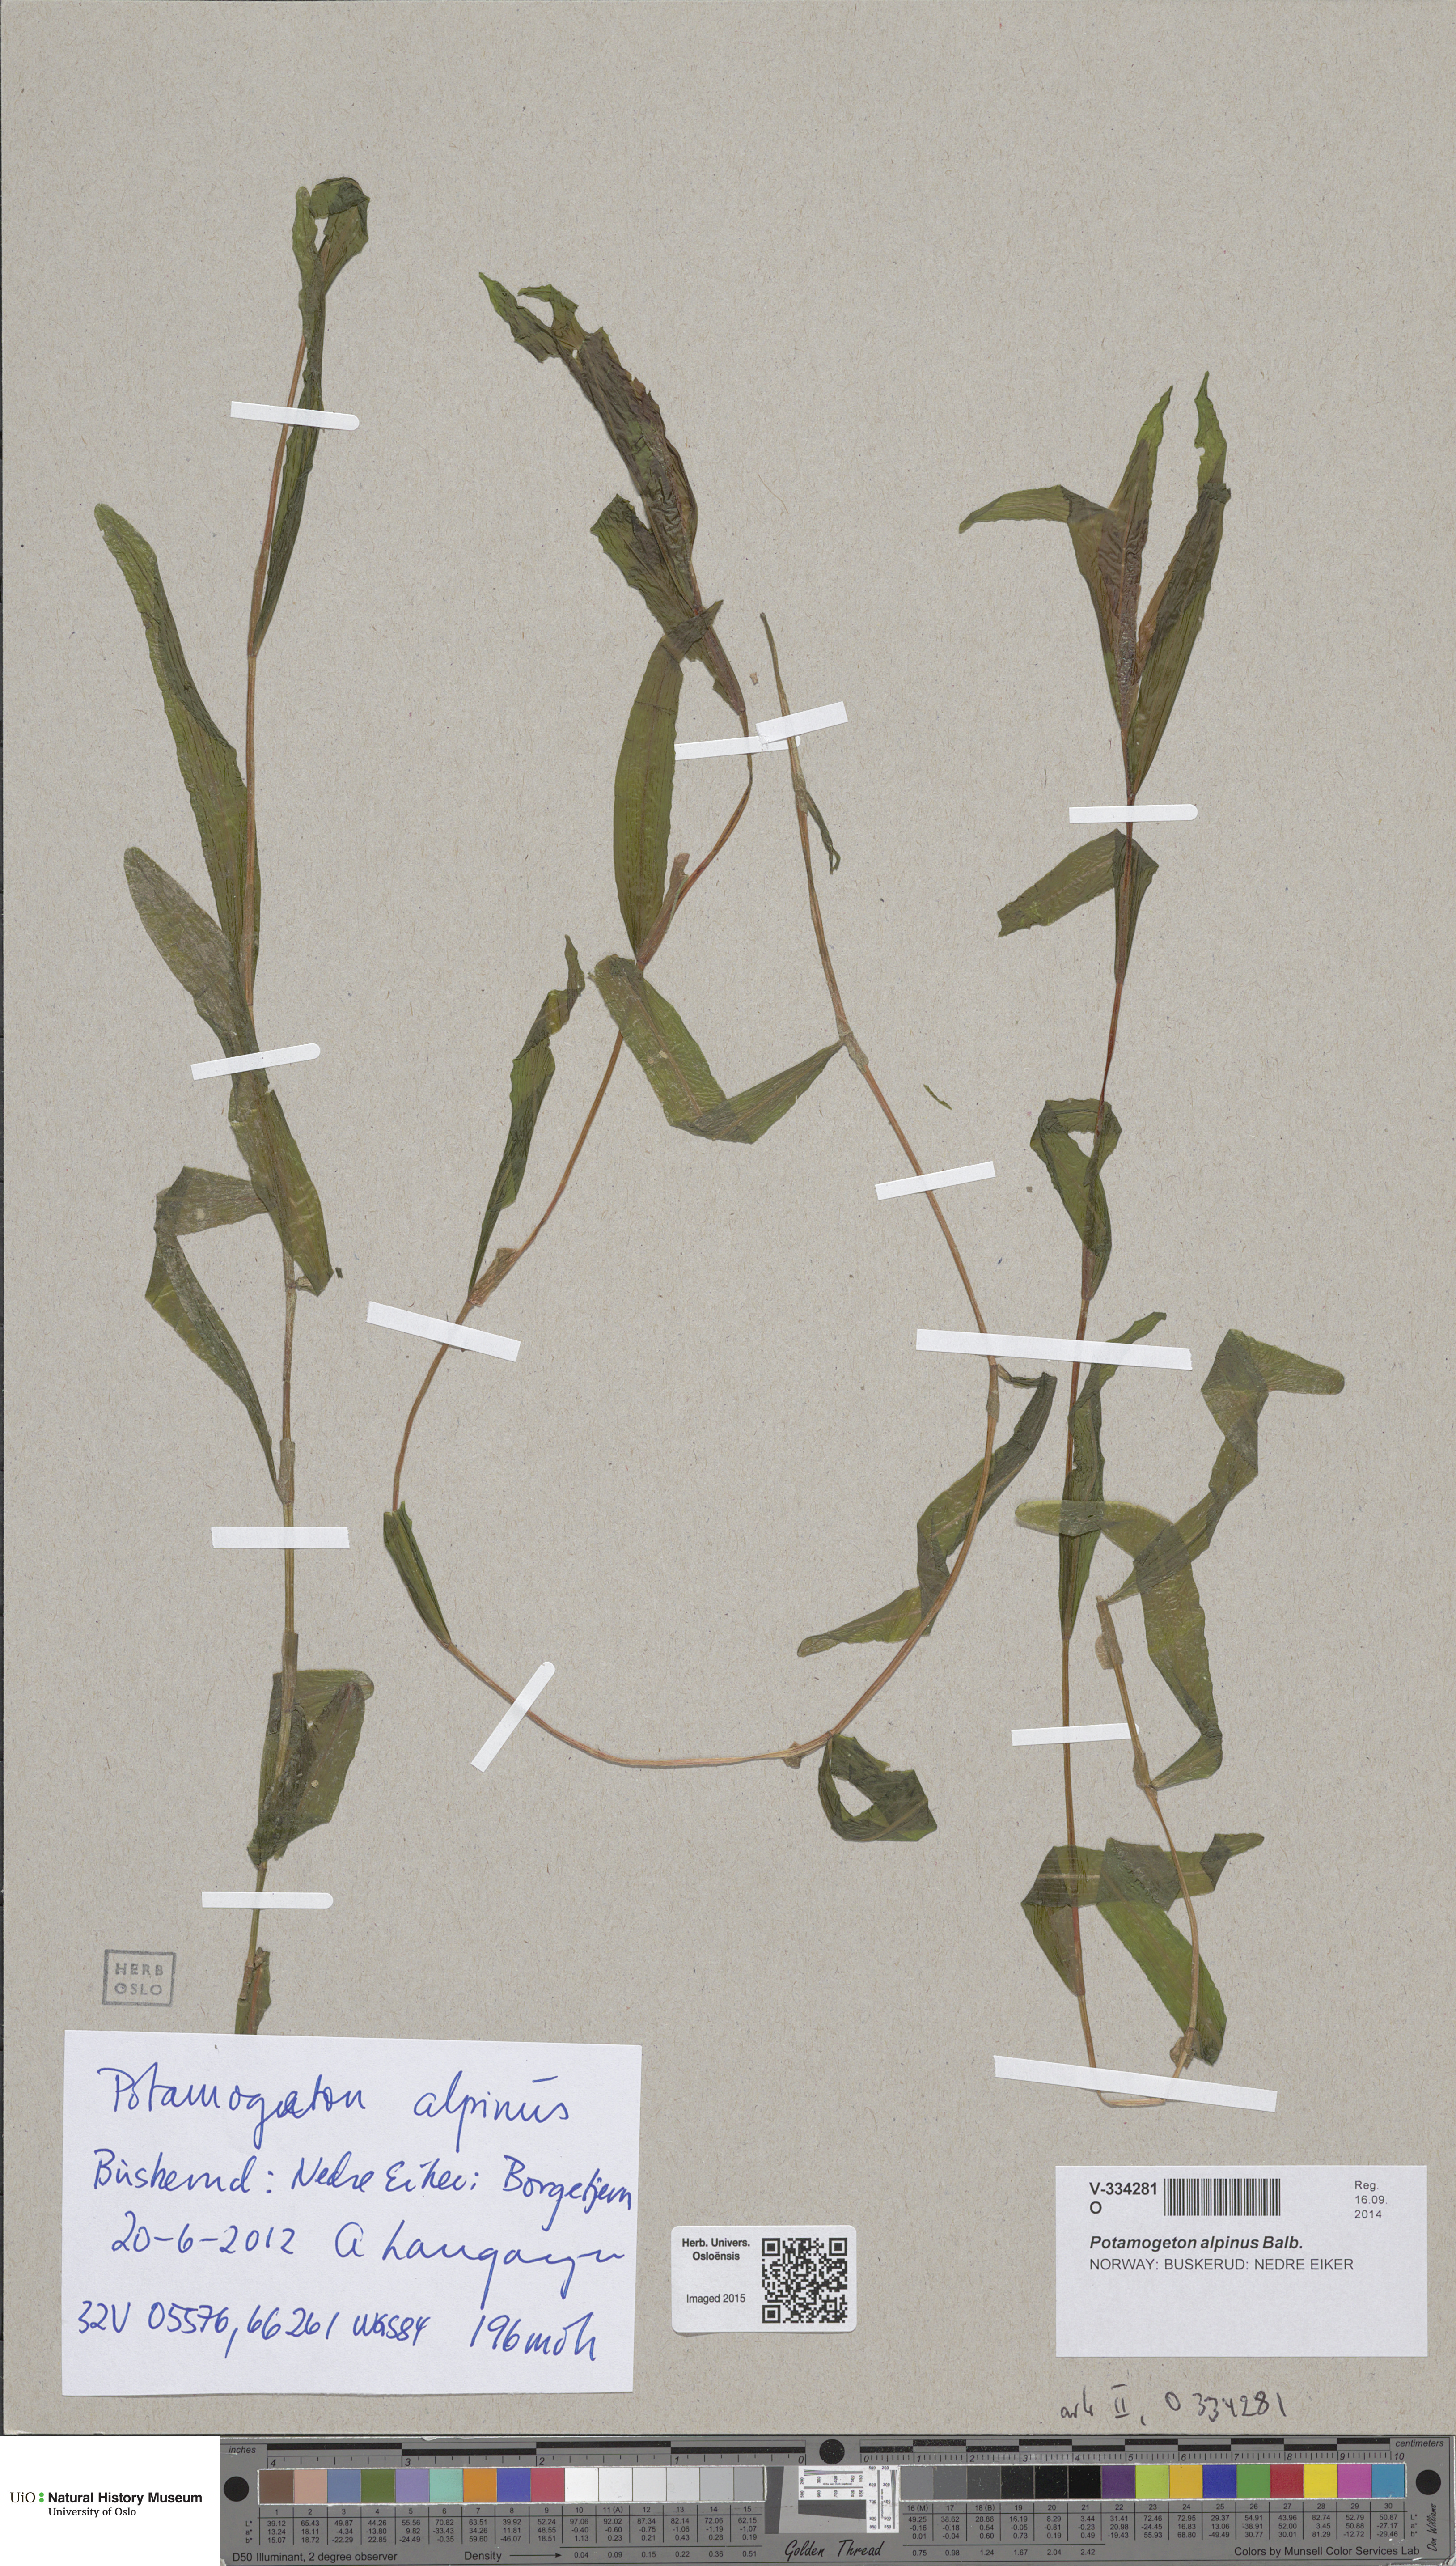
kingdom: Plantae
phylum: Tracheophyta
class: Liliopsida
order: Alismatales
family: Potamogetonaceae
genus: Potamogeton
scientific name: Potamogeton alpinus
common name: Red pondweed
